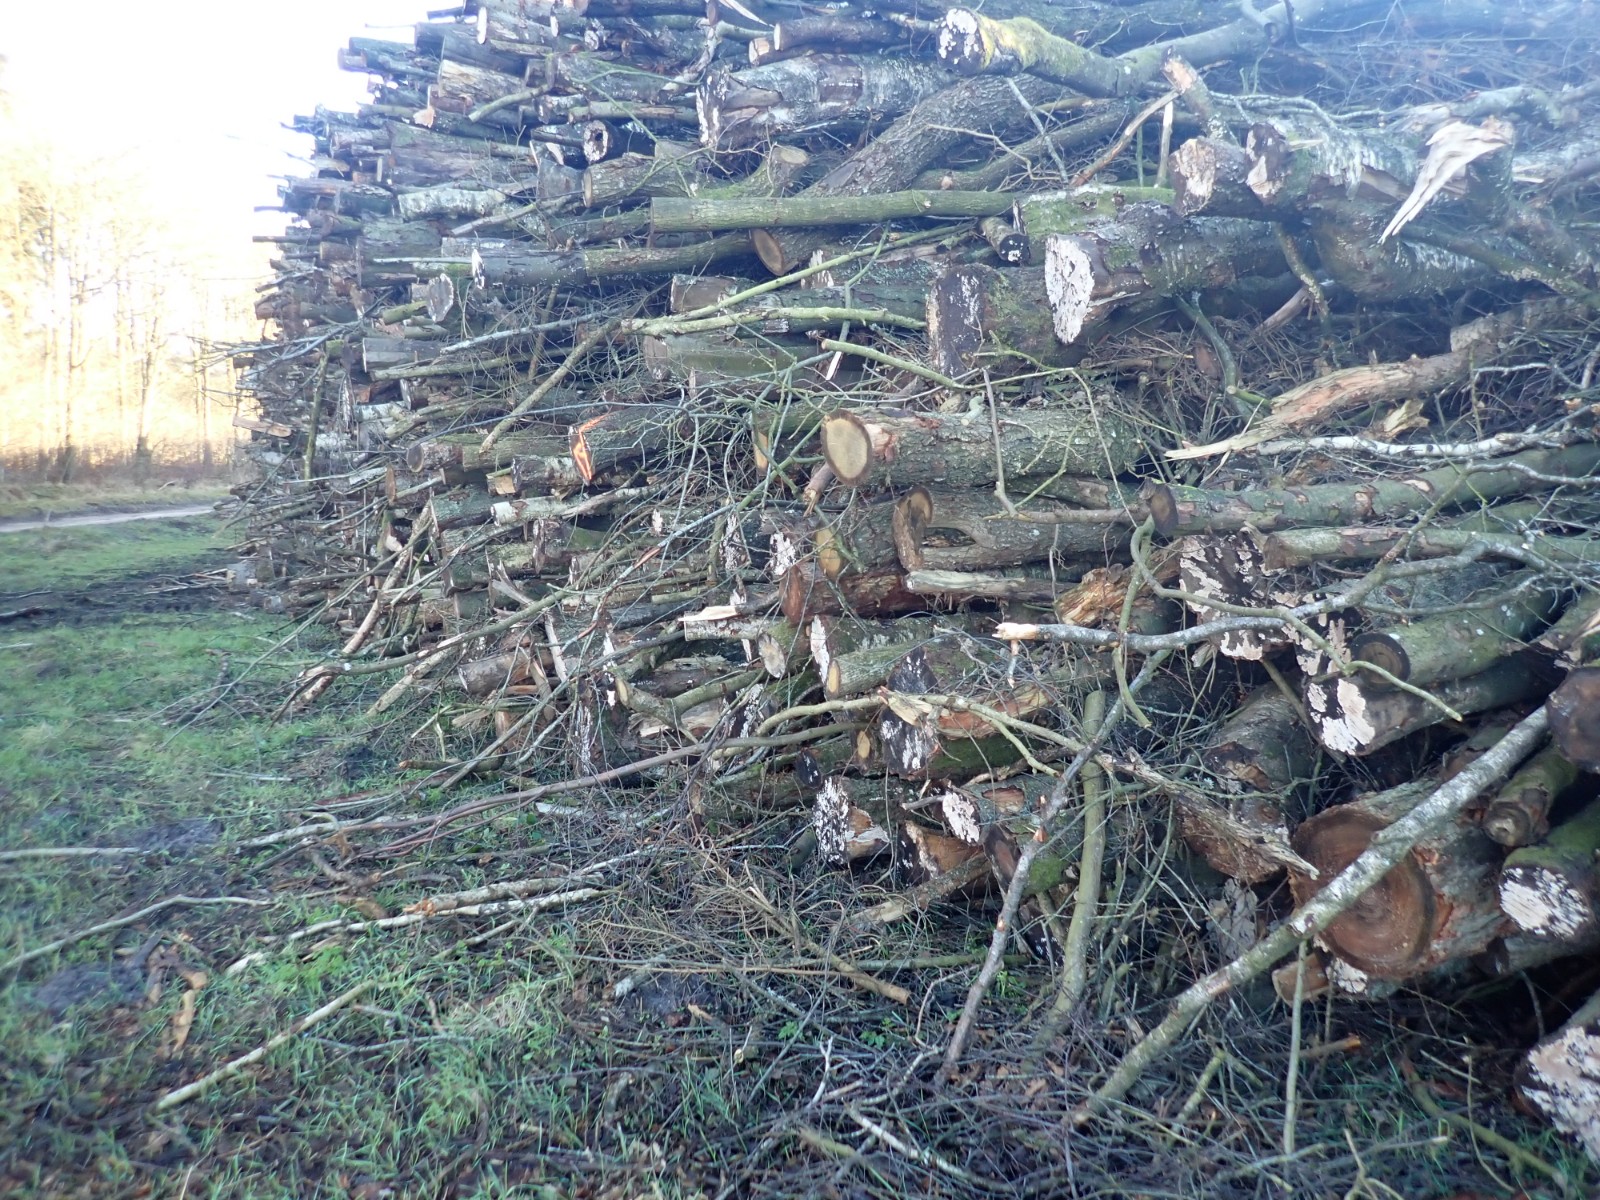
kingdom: Fungi
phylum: Basidiomycota
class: Agaricomycetes
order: Agaricales
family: Physalacriaceae
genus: Cylindrobasidium
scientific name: Cylindrobasidium evolvens
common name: sprækkehinde
